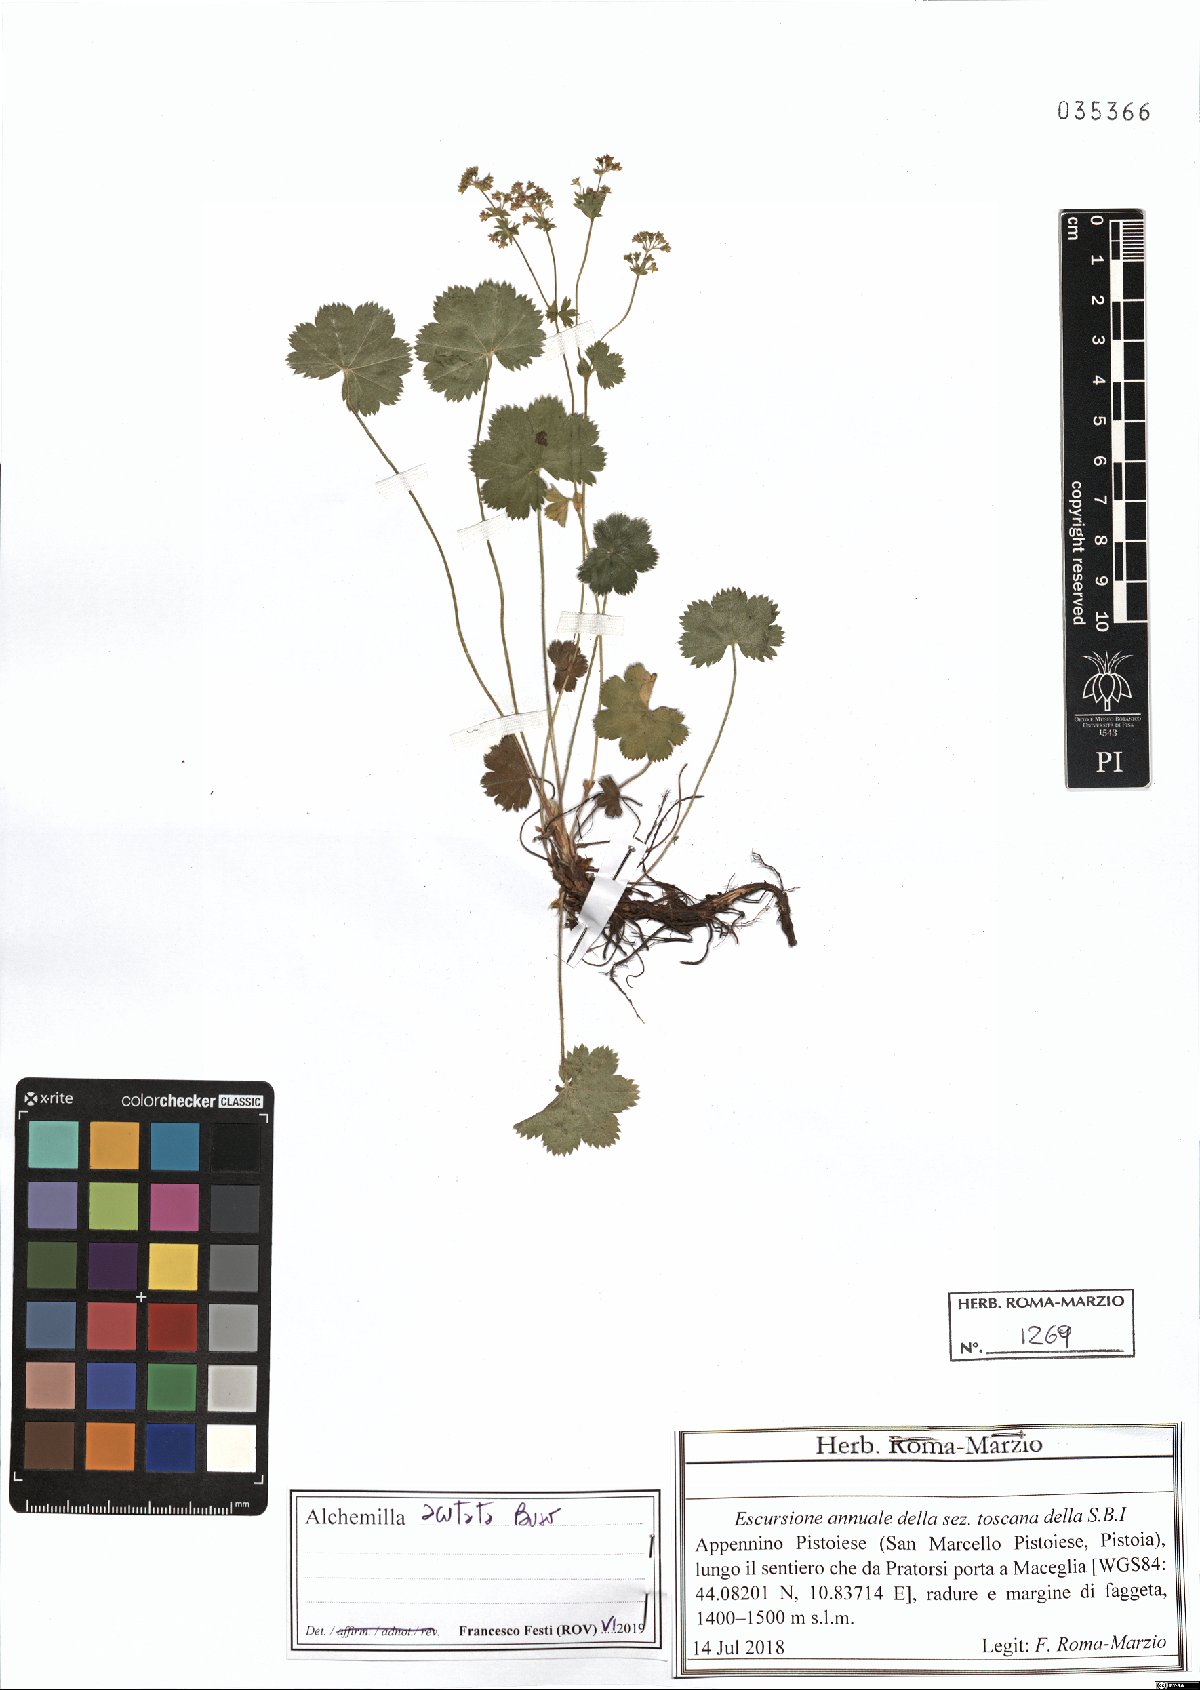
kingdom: Plantae
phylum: Tracheophyta
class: Magnoliopsida
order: Rosales
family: Rosaceae
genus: Alchemilla
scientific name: Alchemilla acutata
